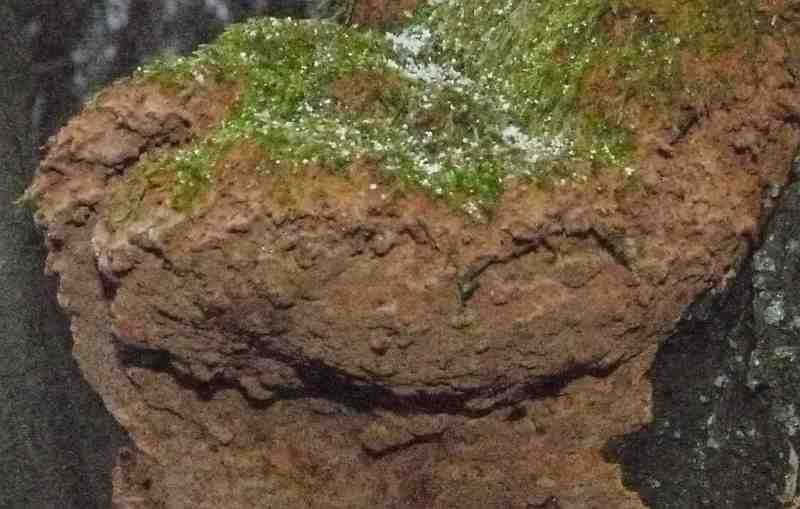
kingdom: Fungi
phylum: Basidiomycota
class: Agaricomycetes
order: Hymenochaetales
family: Hymenochaetaceae
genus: Fuscoporia
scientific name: Fuscoporia ferruginosa
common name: rustbrun ildporesvamp
